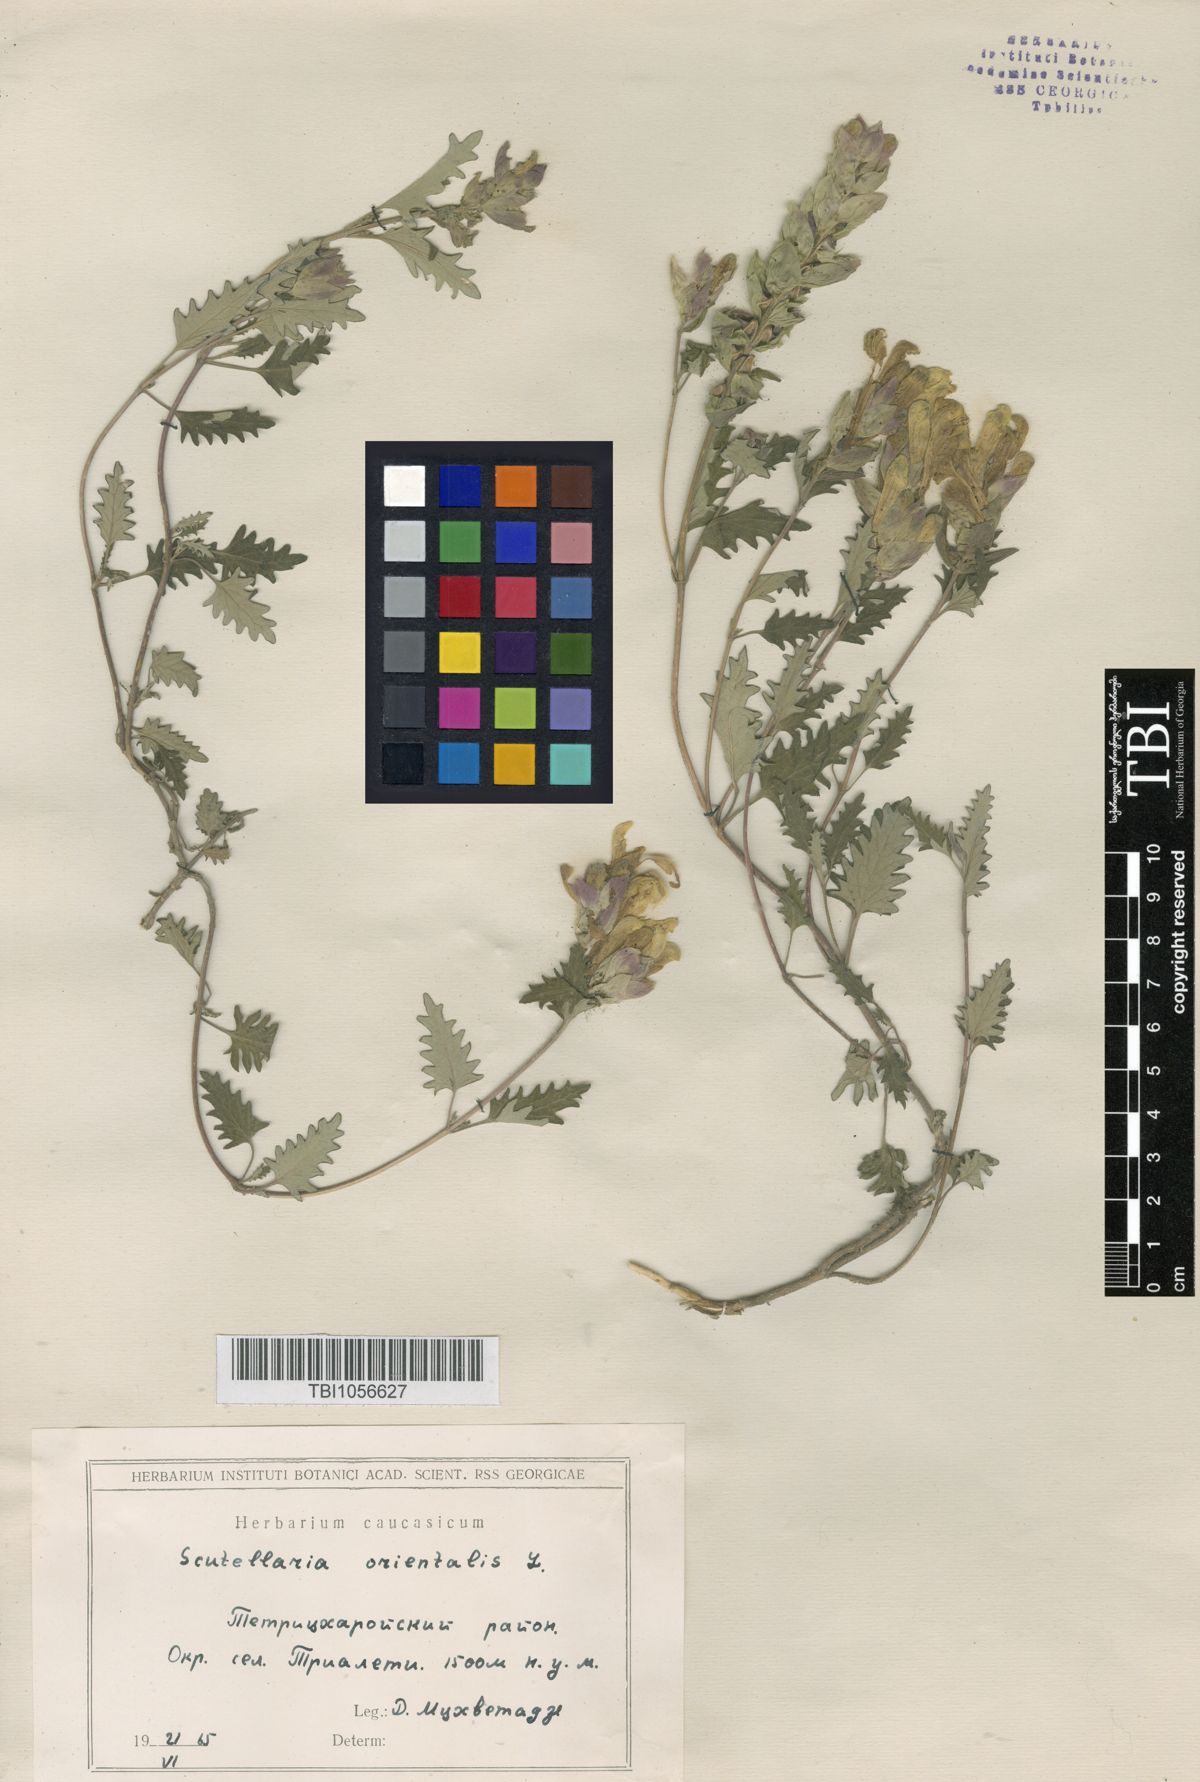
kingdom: Plantae
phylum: Tracheophyta
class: Magnoliopsida
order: Lamiales
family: Lamiaceae
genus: Scutellaria
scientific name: Scutellaria orientalis
